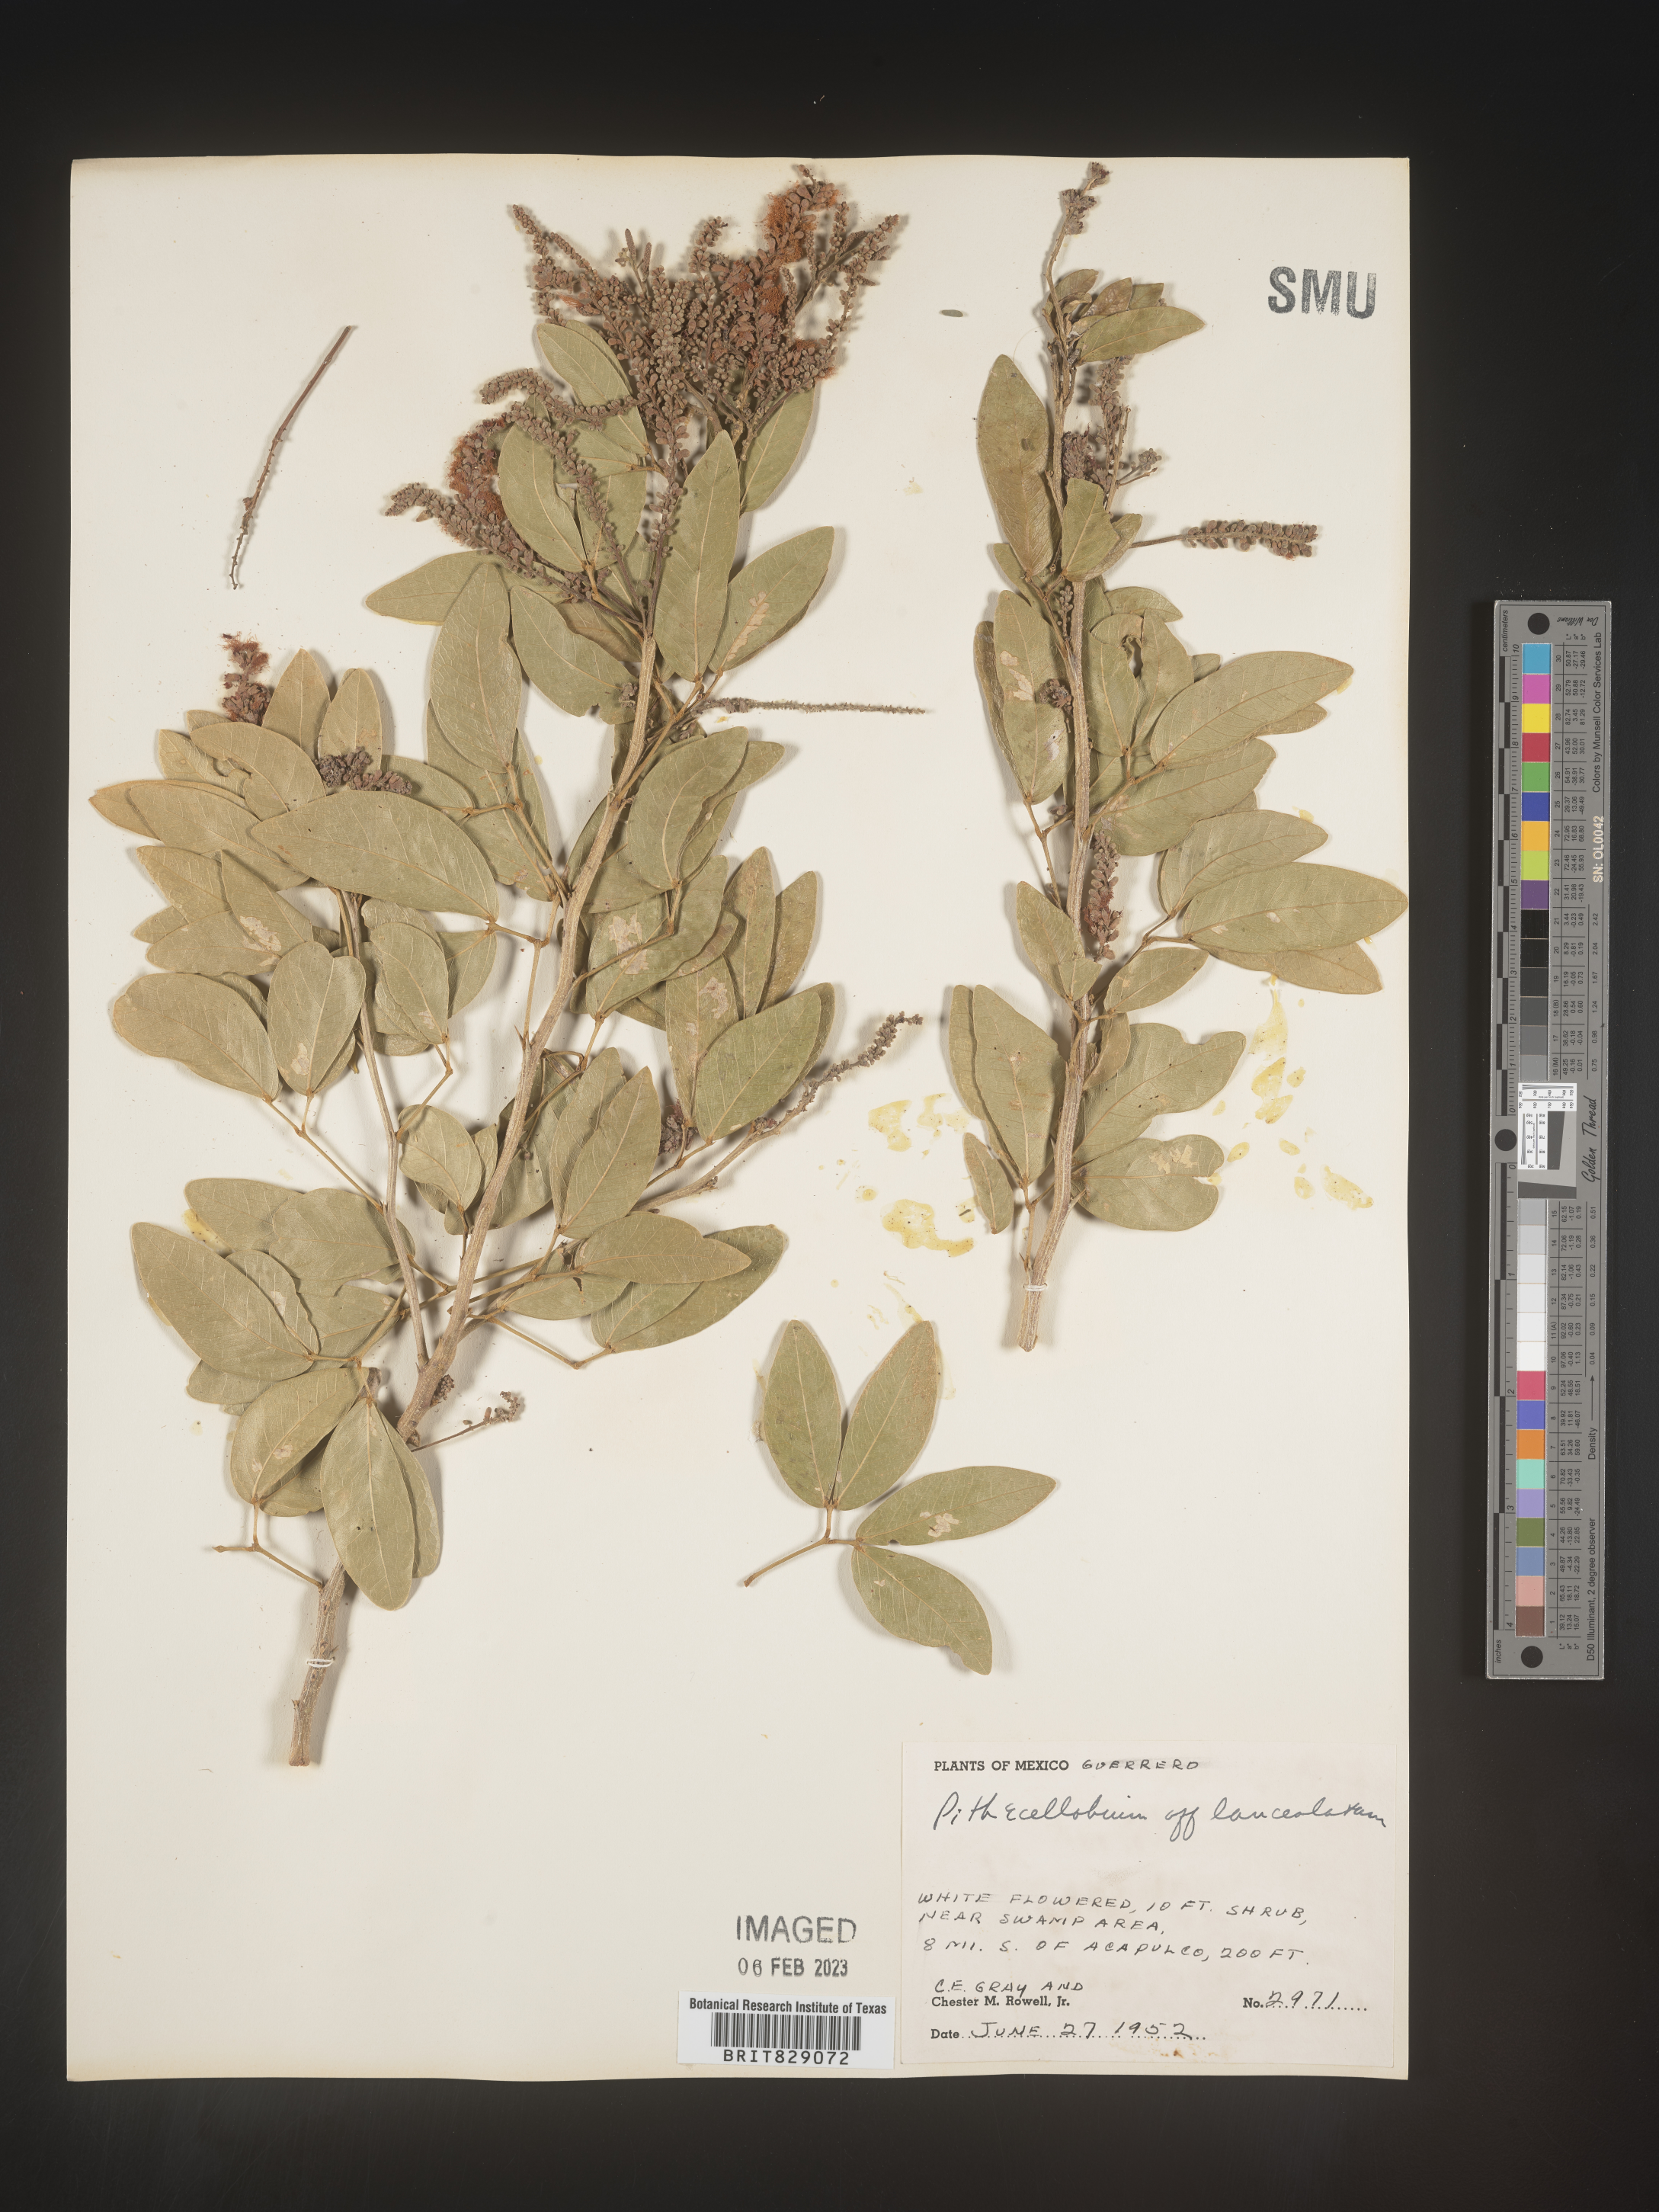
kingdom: Plantae
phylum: Tracheophyta
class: Magnoliopsida
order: Fabales
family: Fabaceae
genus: Pithecellobium
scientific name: Pithecellobium
